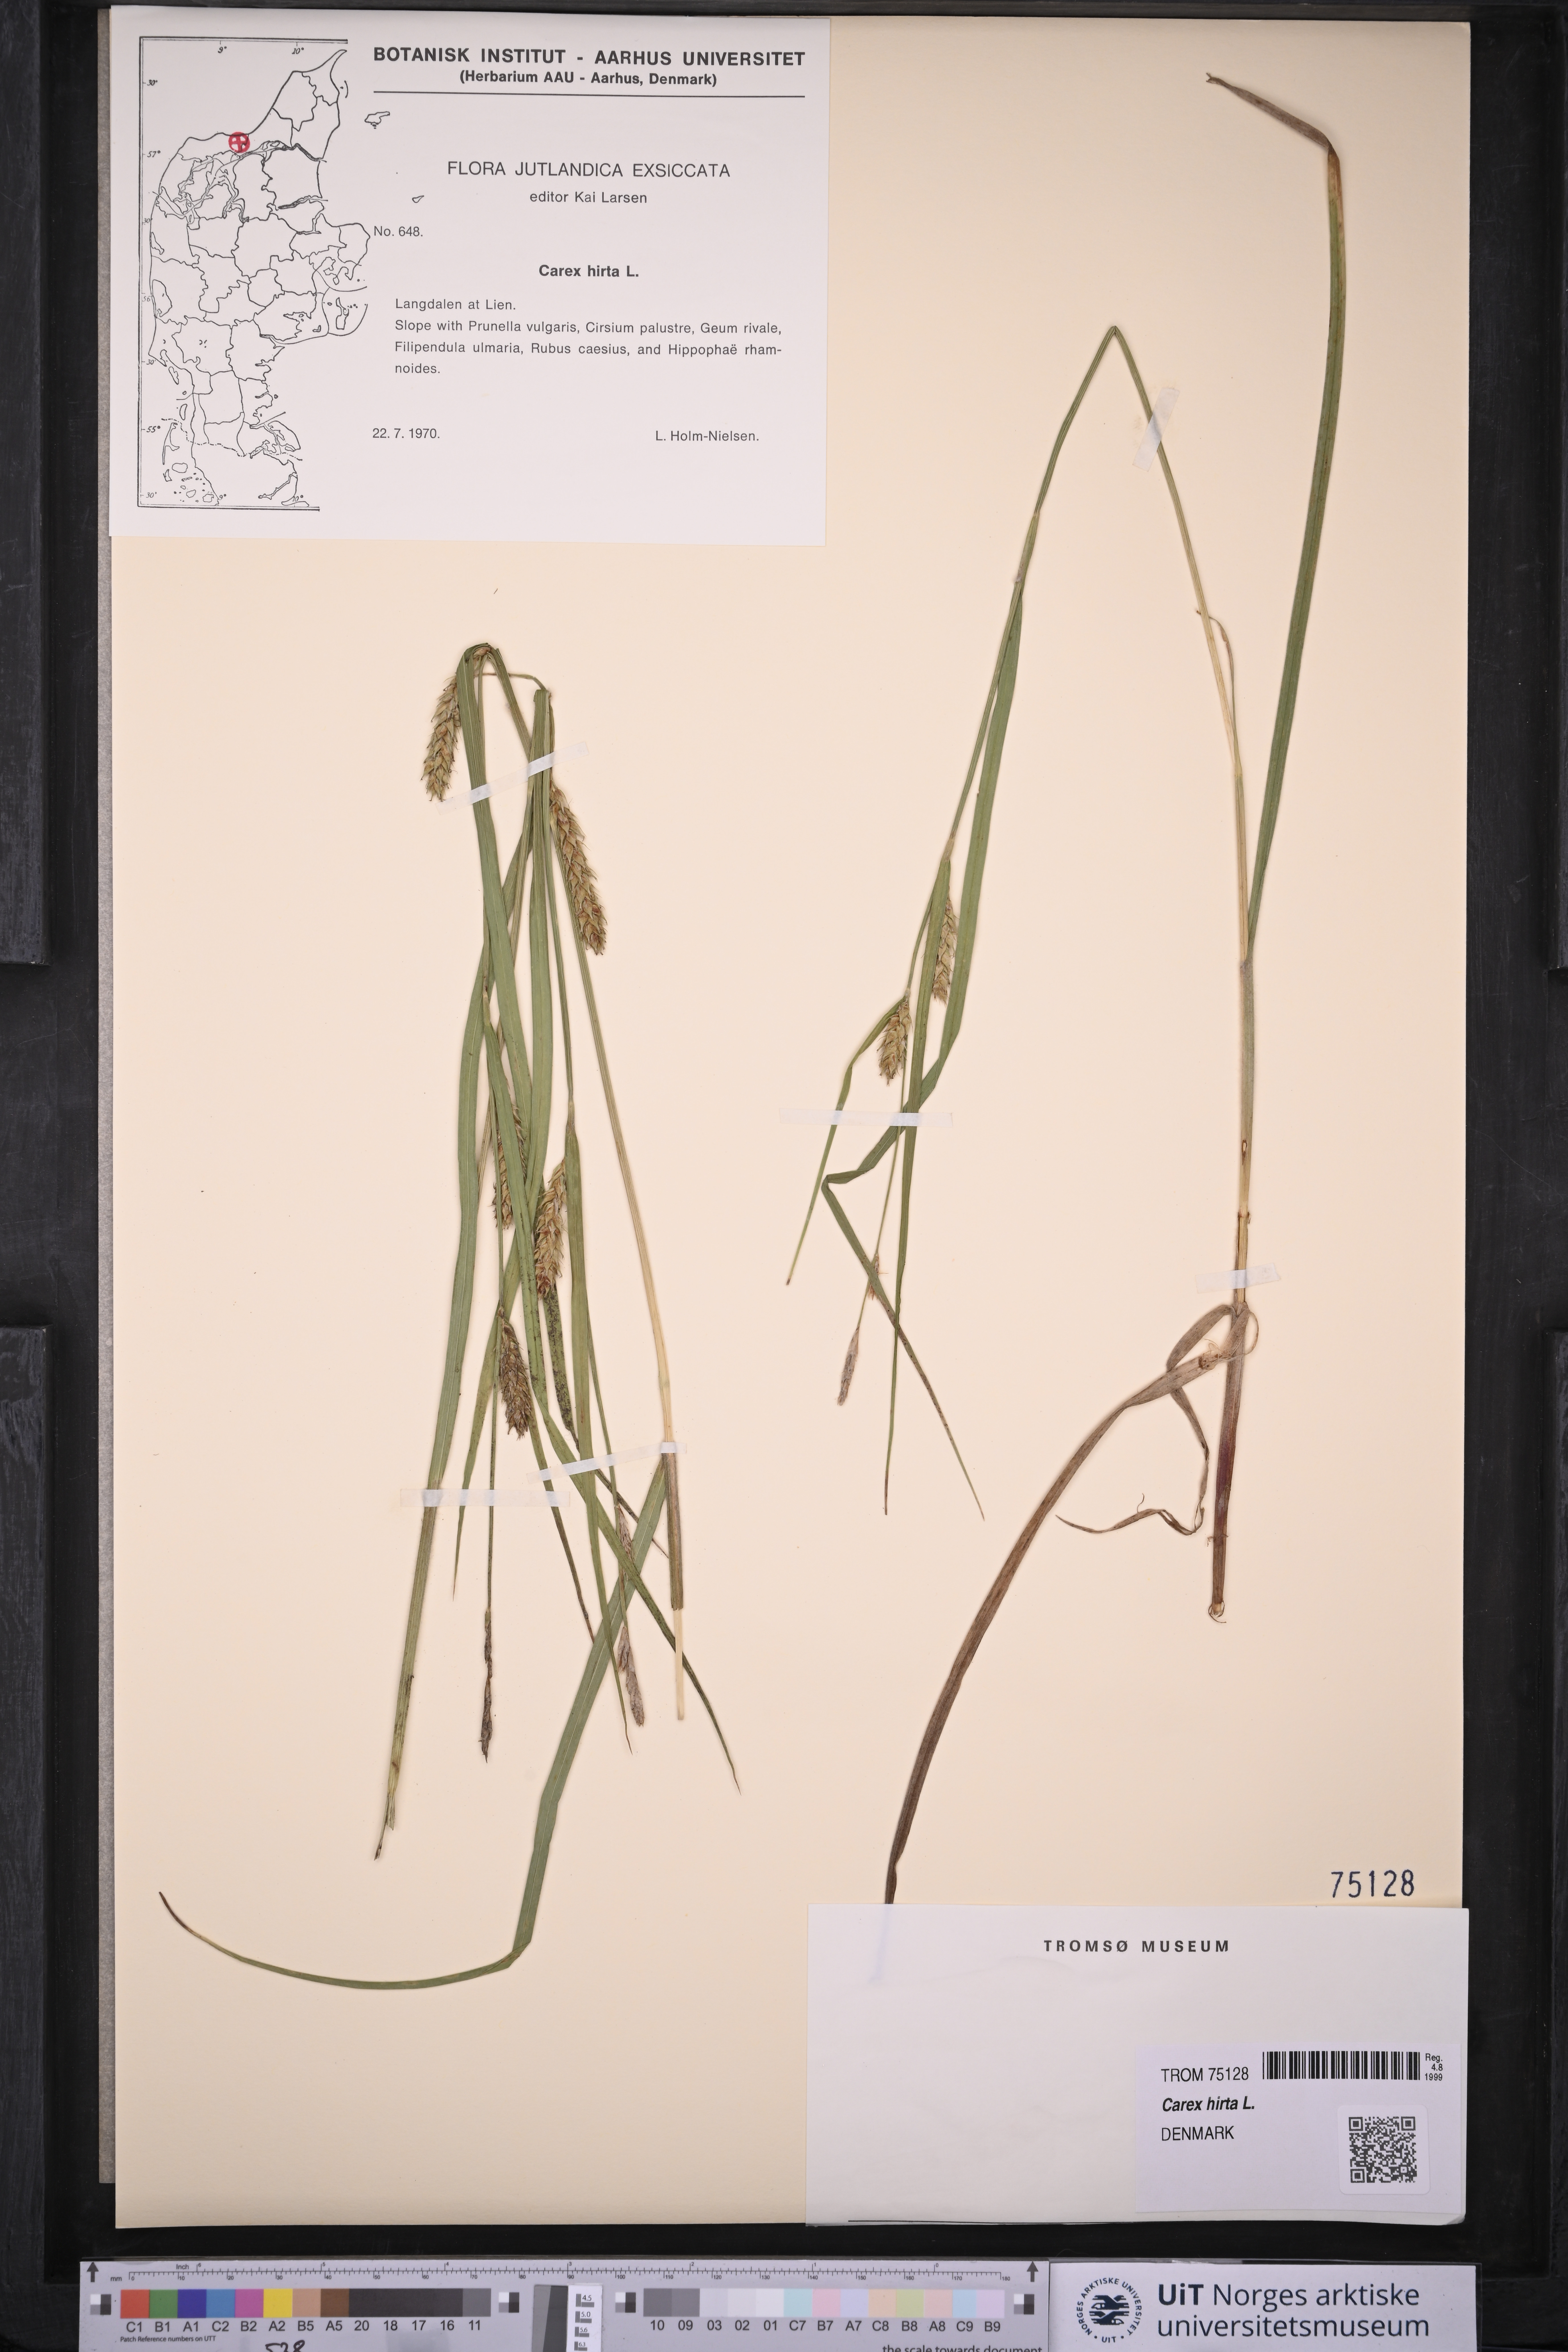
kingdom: Plantae
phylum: Tracheophyta
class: Liliopsida
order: Poales
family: Cyperaceae
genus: Carex
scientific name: Carex hirta
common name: Hairy sedge
